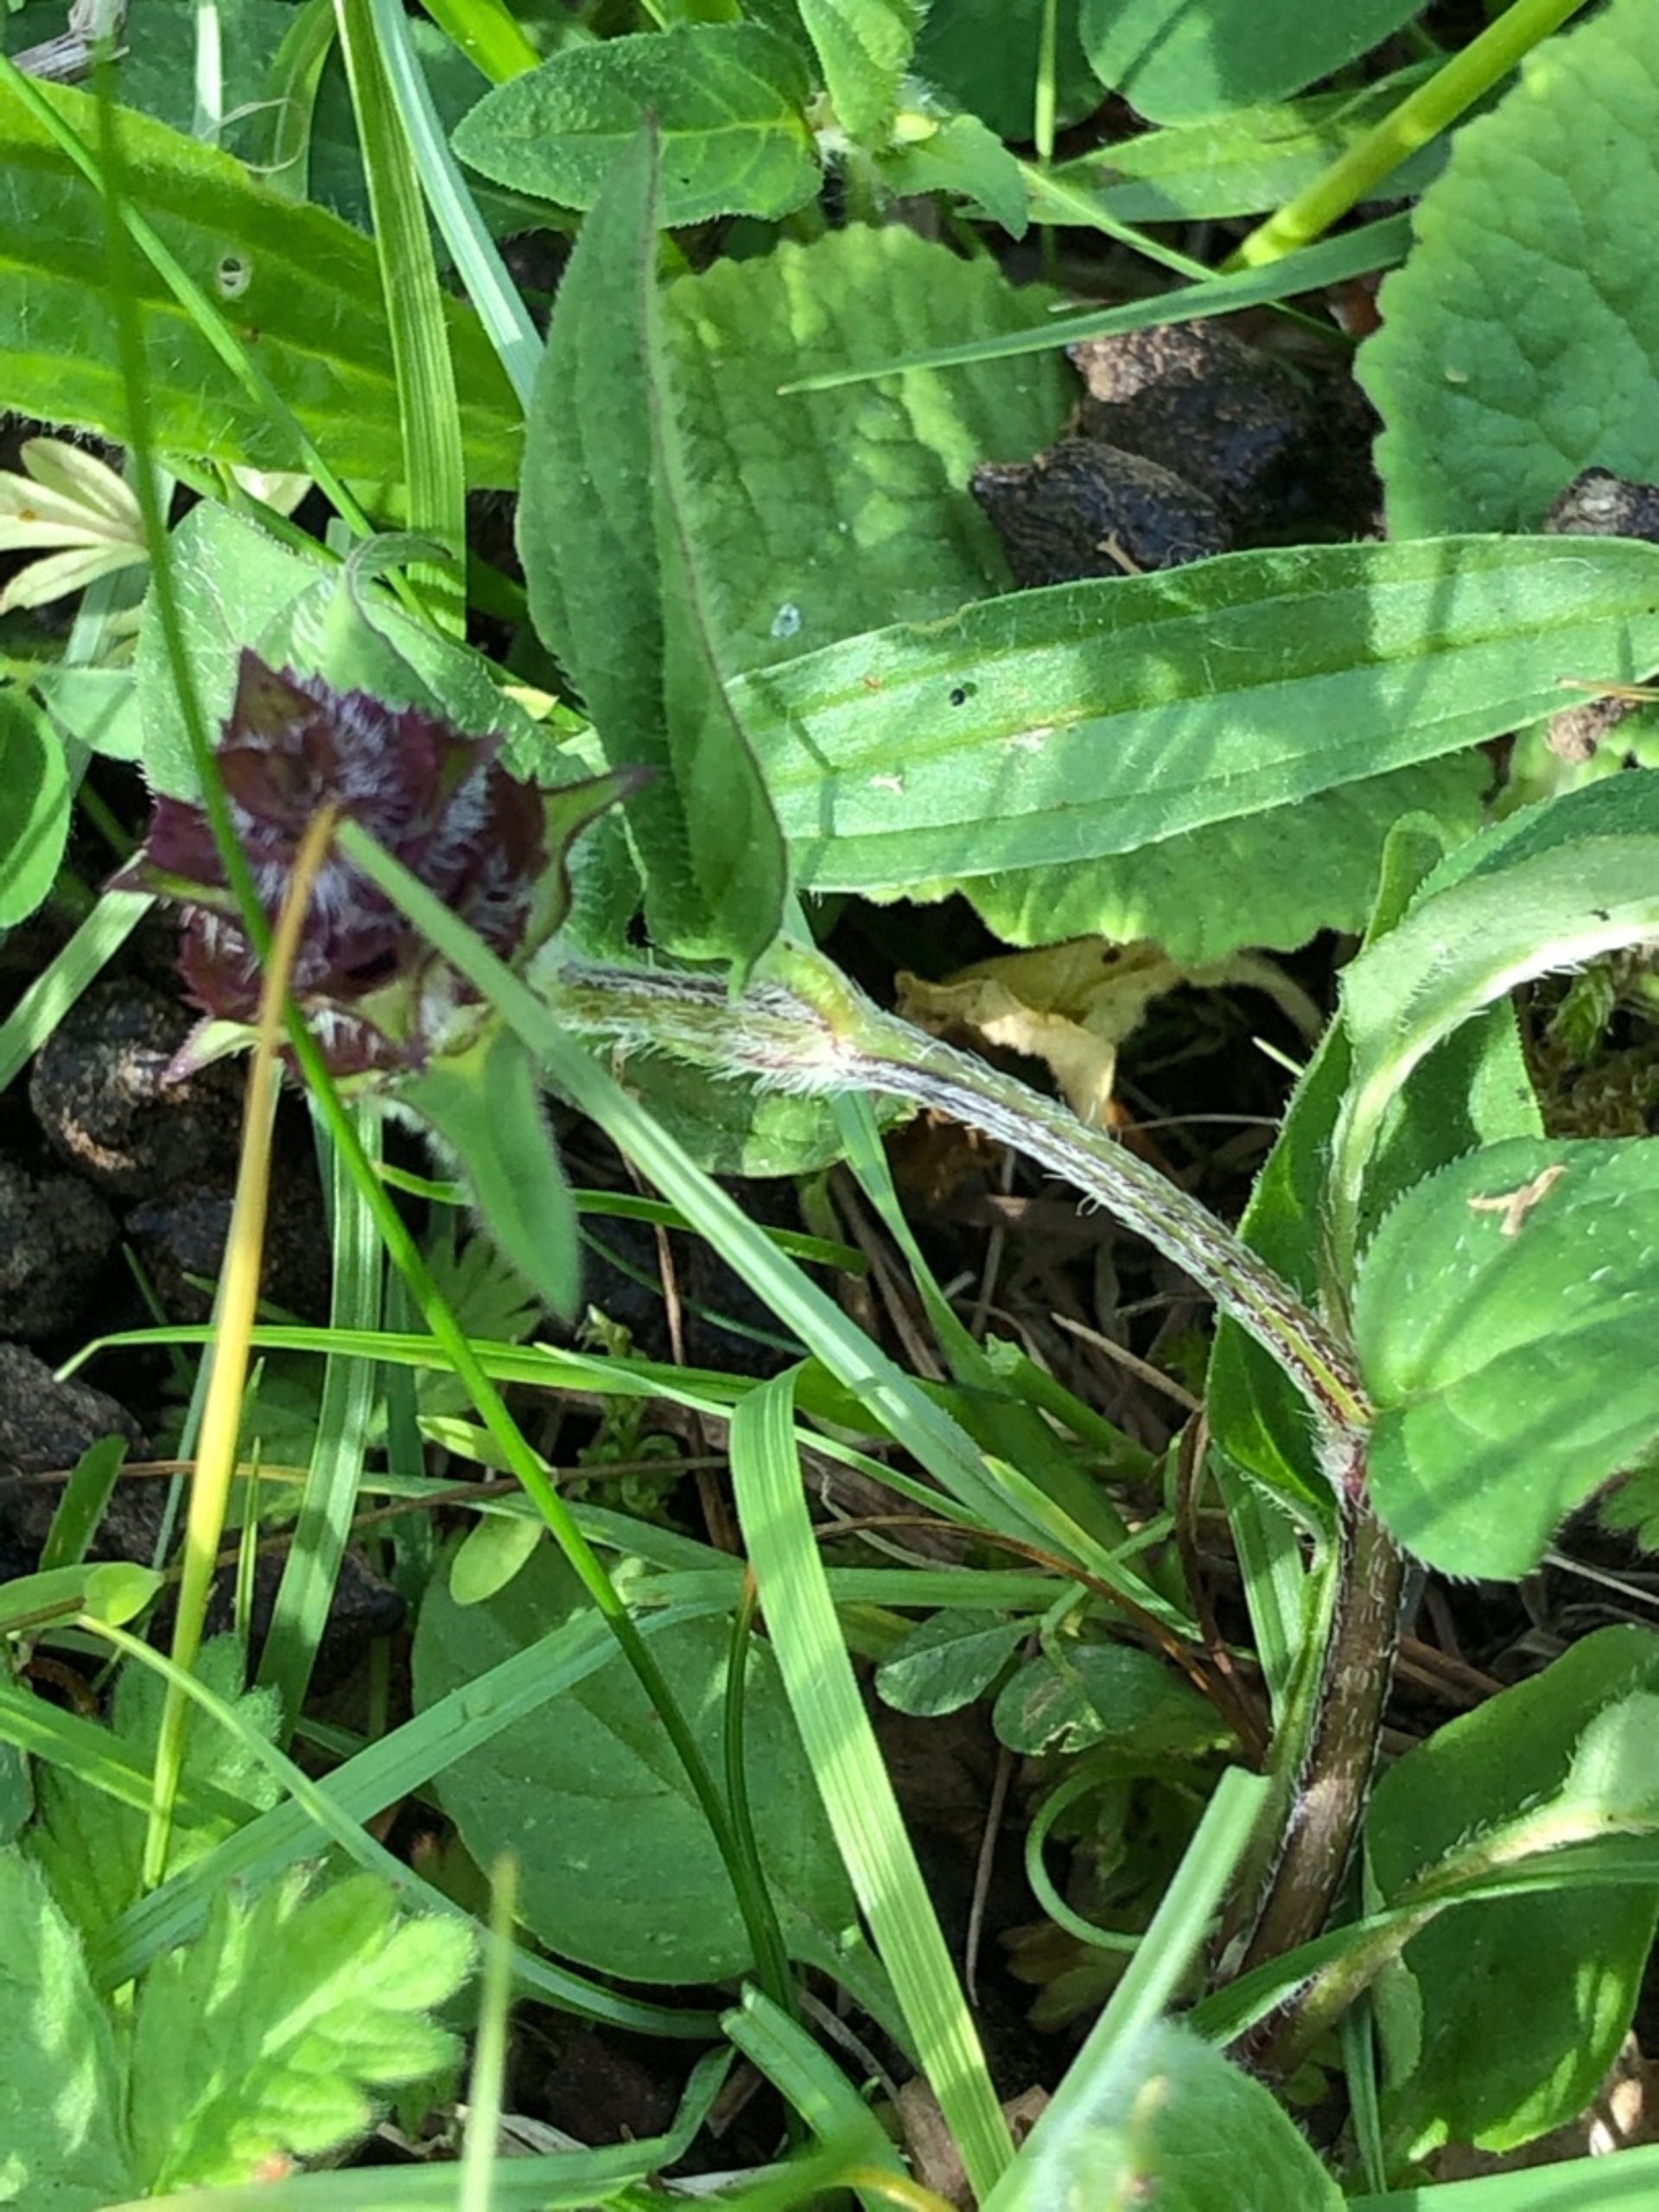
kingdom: Plantae
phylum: Tracheophyta
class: Magnoliopsida
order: Lamiales
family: Lamiaceae
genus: Prunella
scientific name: Prunella vulgaris
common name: Almindelig brunelle
